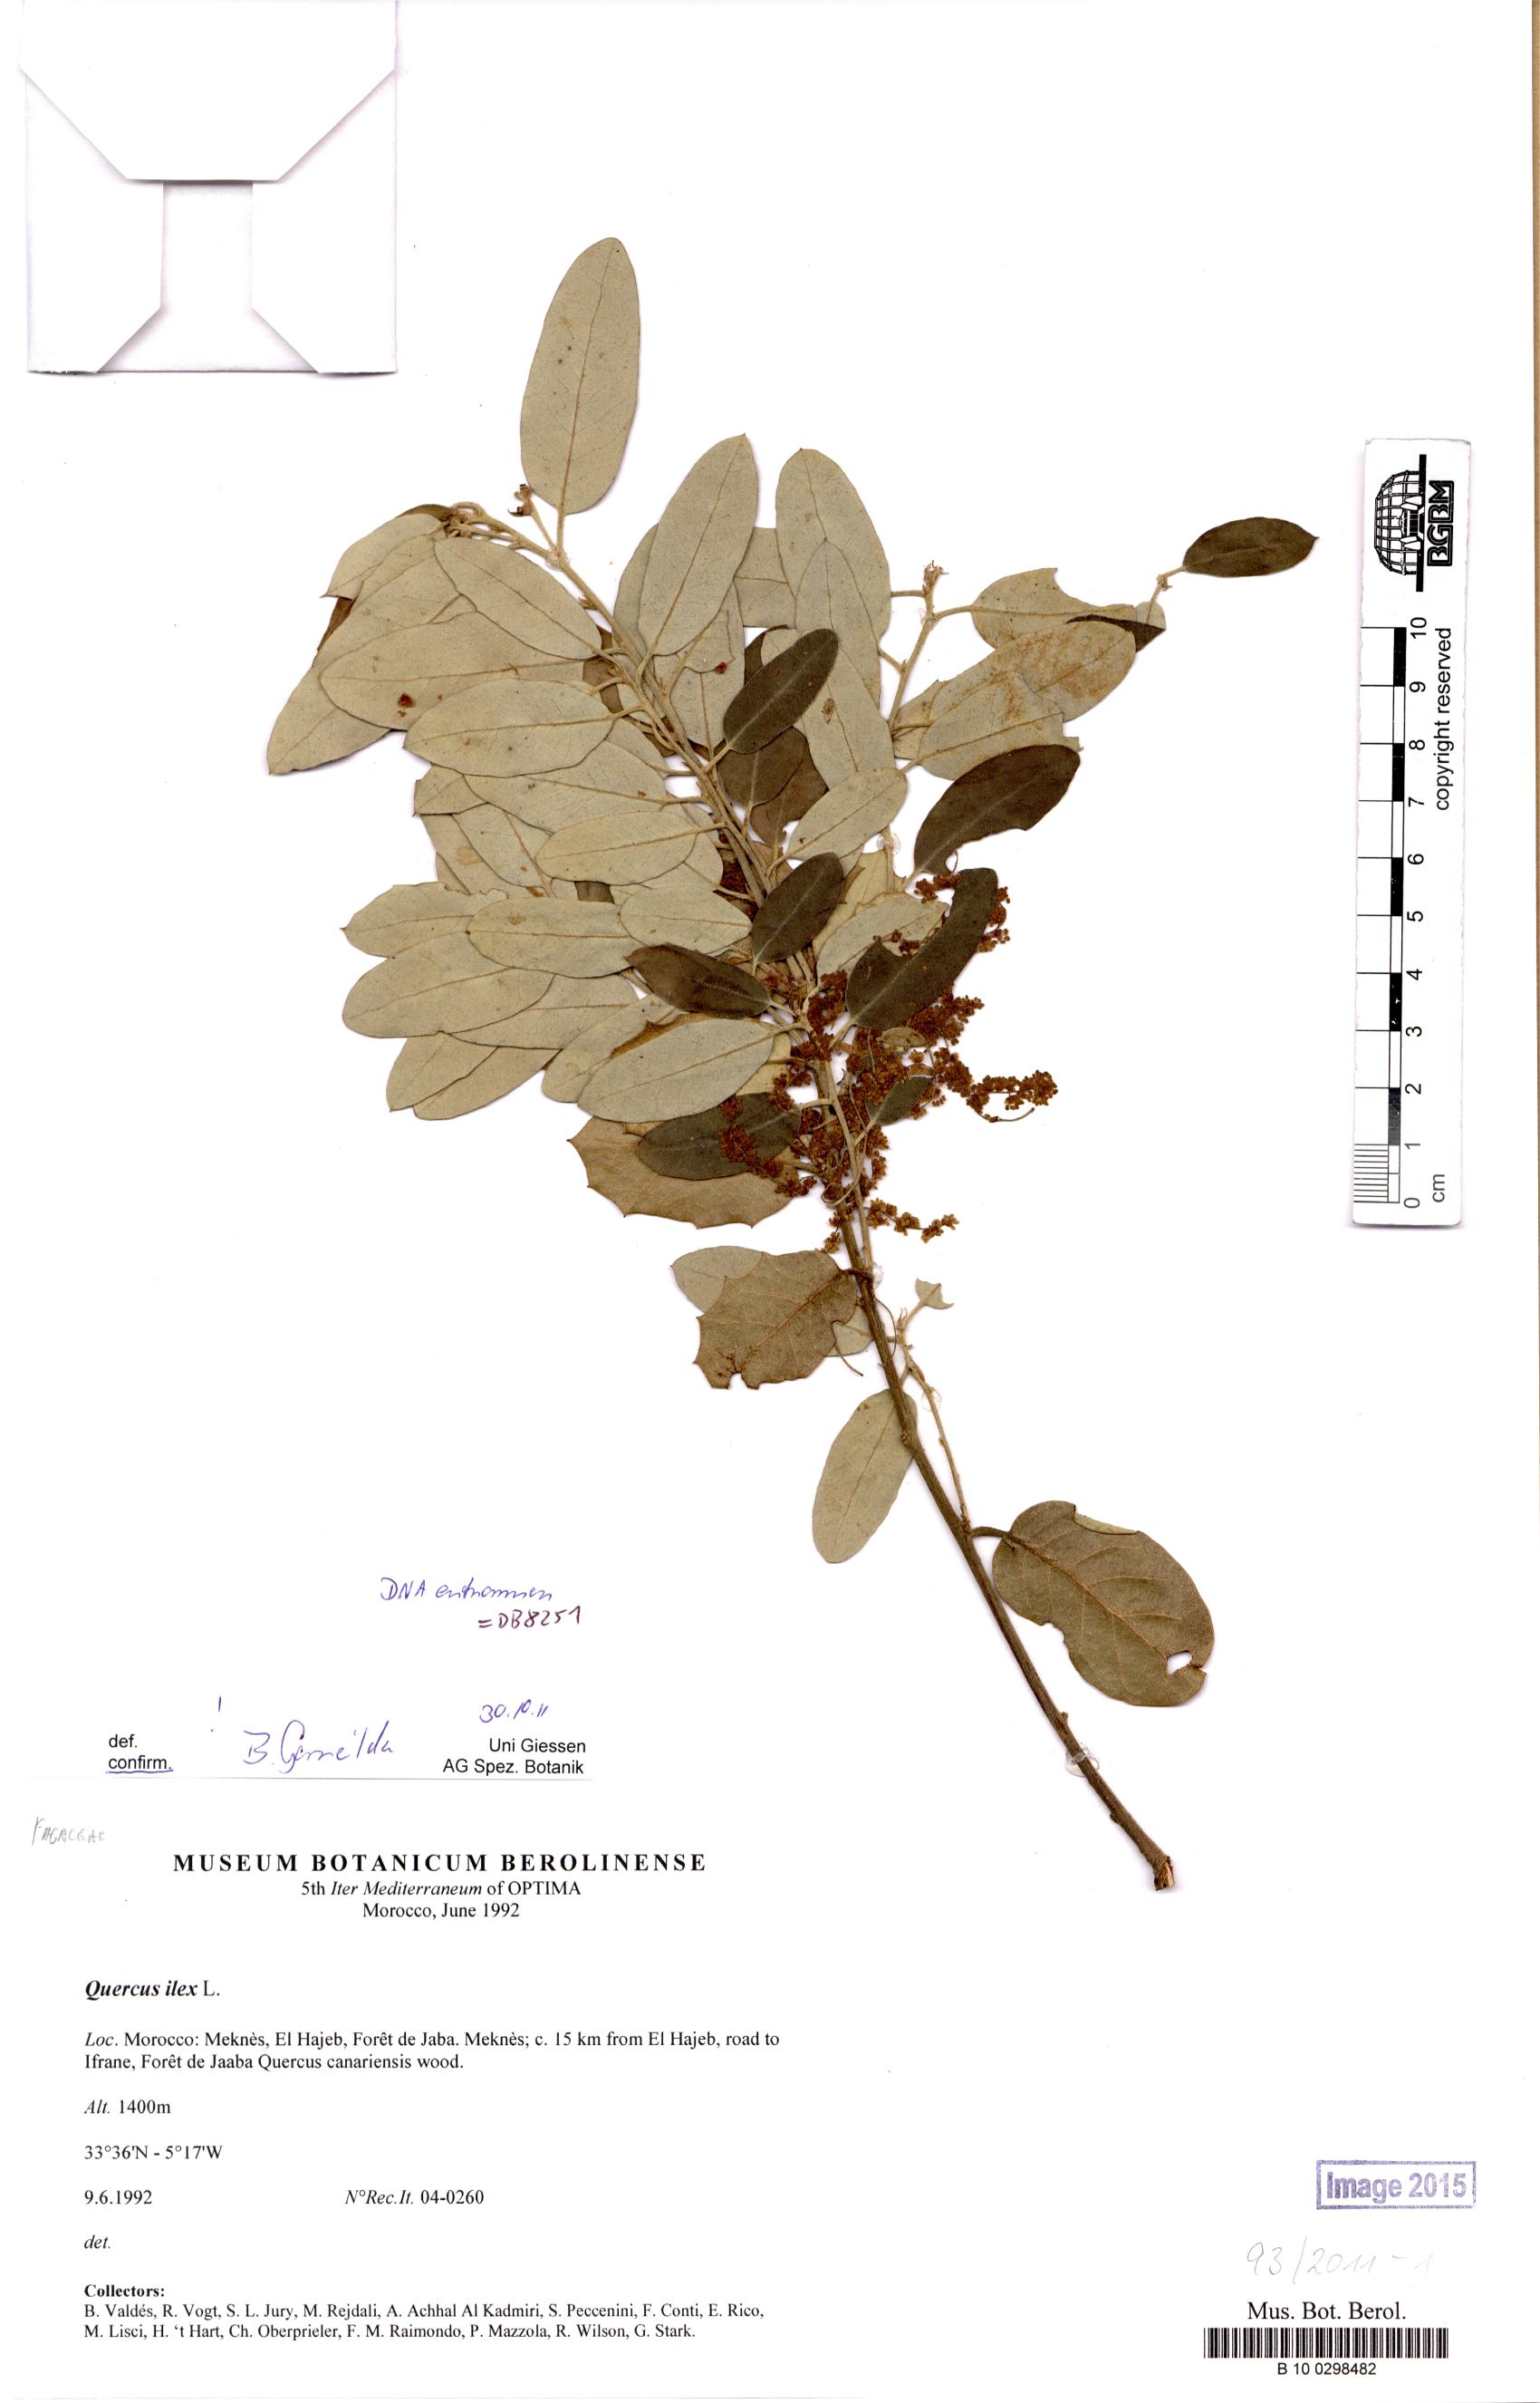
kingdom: Plantae
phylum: Tracheophyta
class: Magnoliopsida
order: Fagales
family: Fagaceae
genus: Quercus
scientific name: Quercus ilex
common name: Evergreen oak
